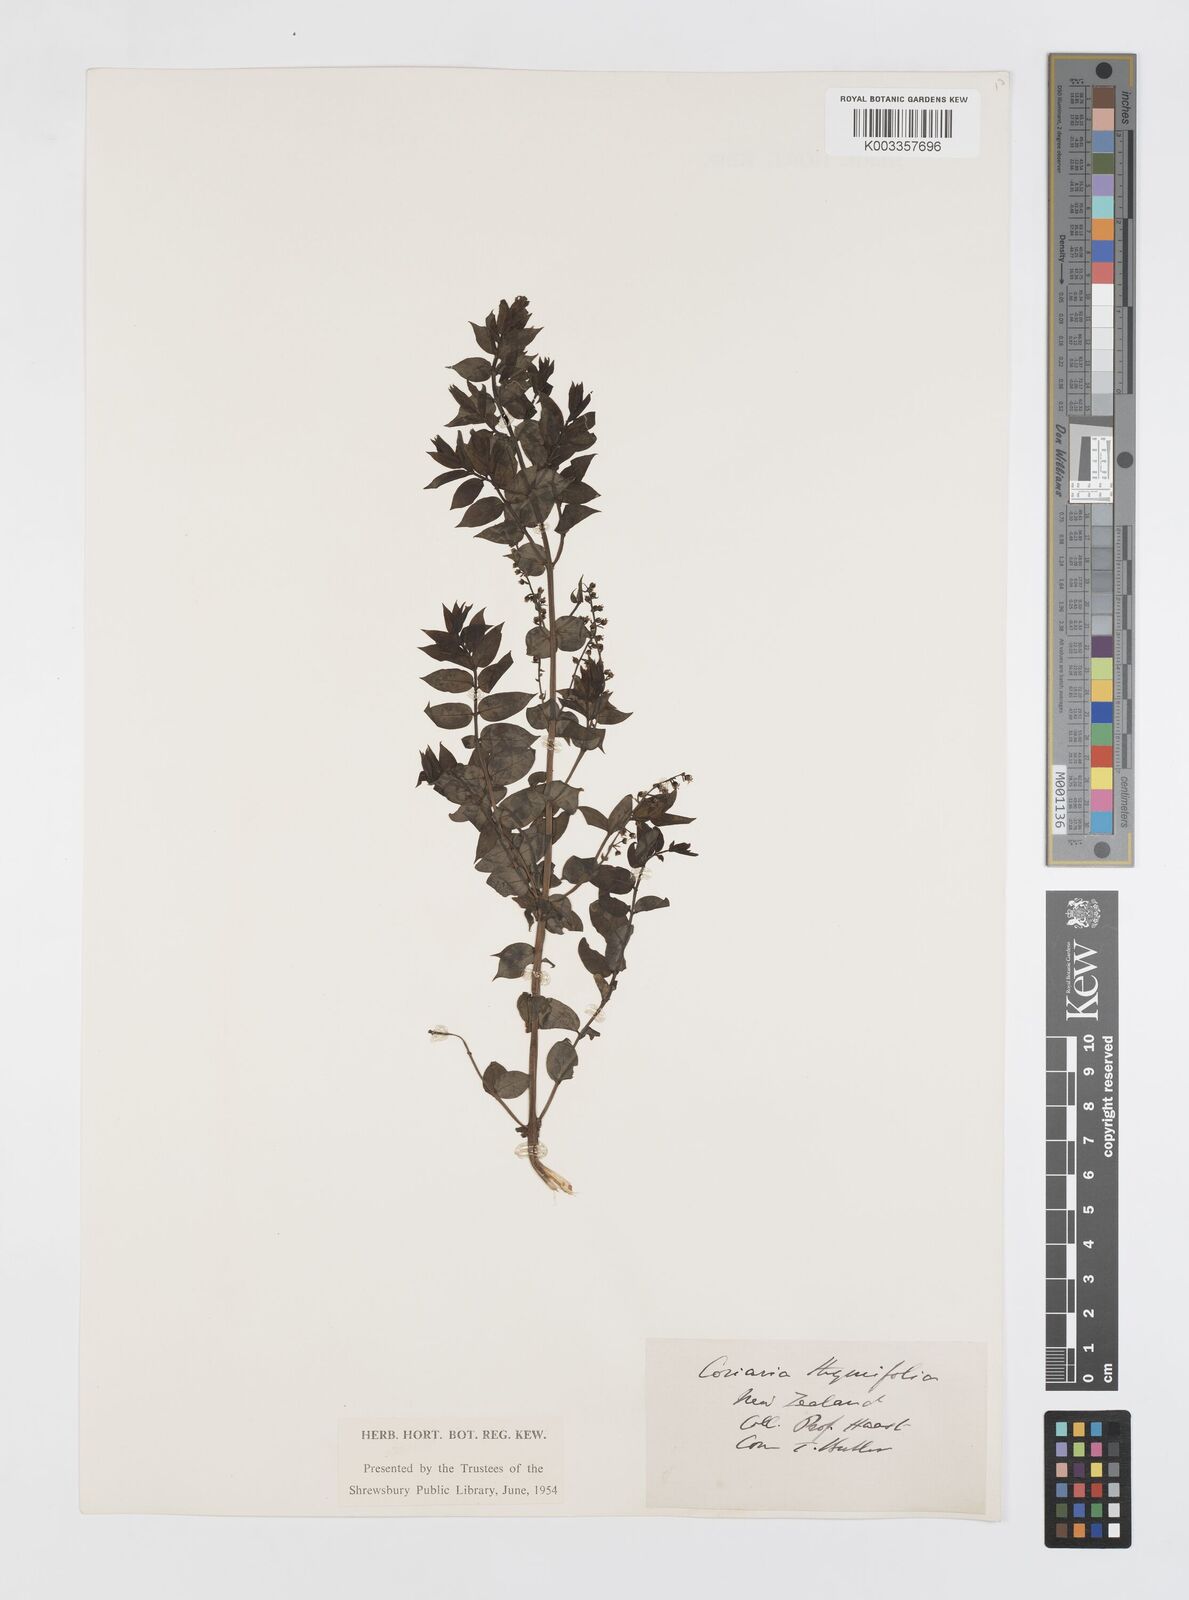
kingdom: Plantae
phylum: Tracheophyta
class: Magnoliopsida
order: Cucurbitales
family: Coriariaceae
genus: Coriaria
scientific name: Coriaria lurida
